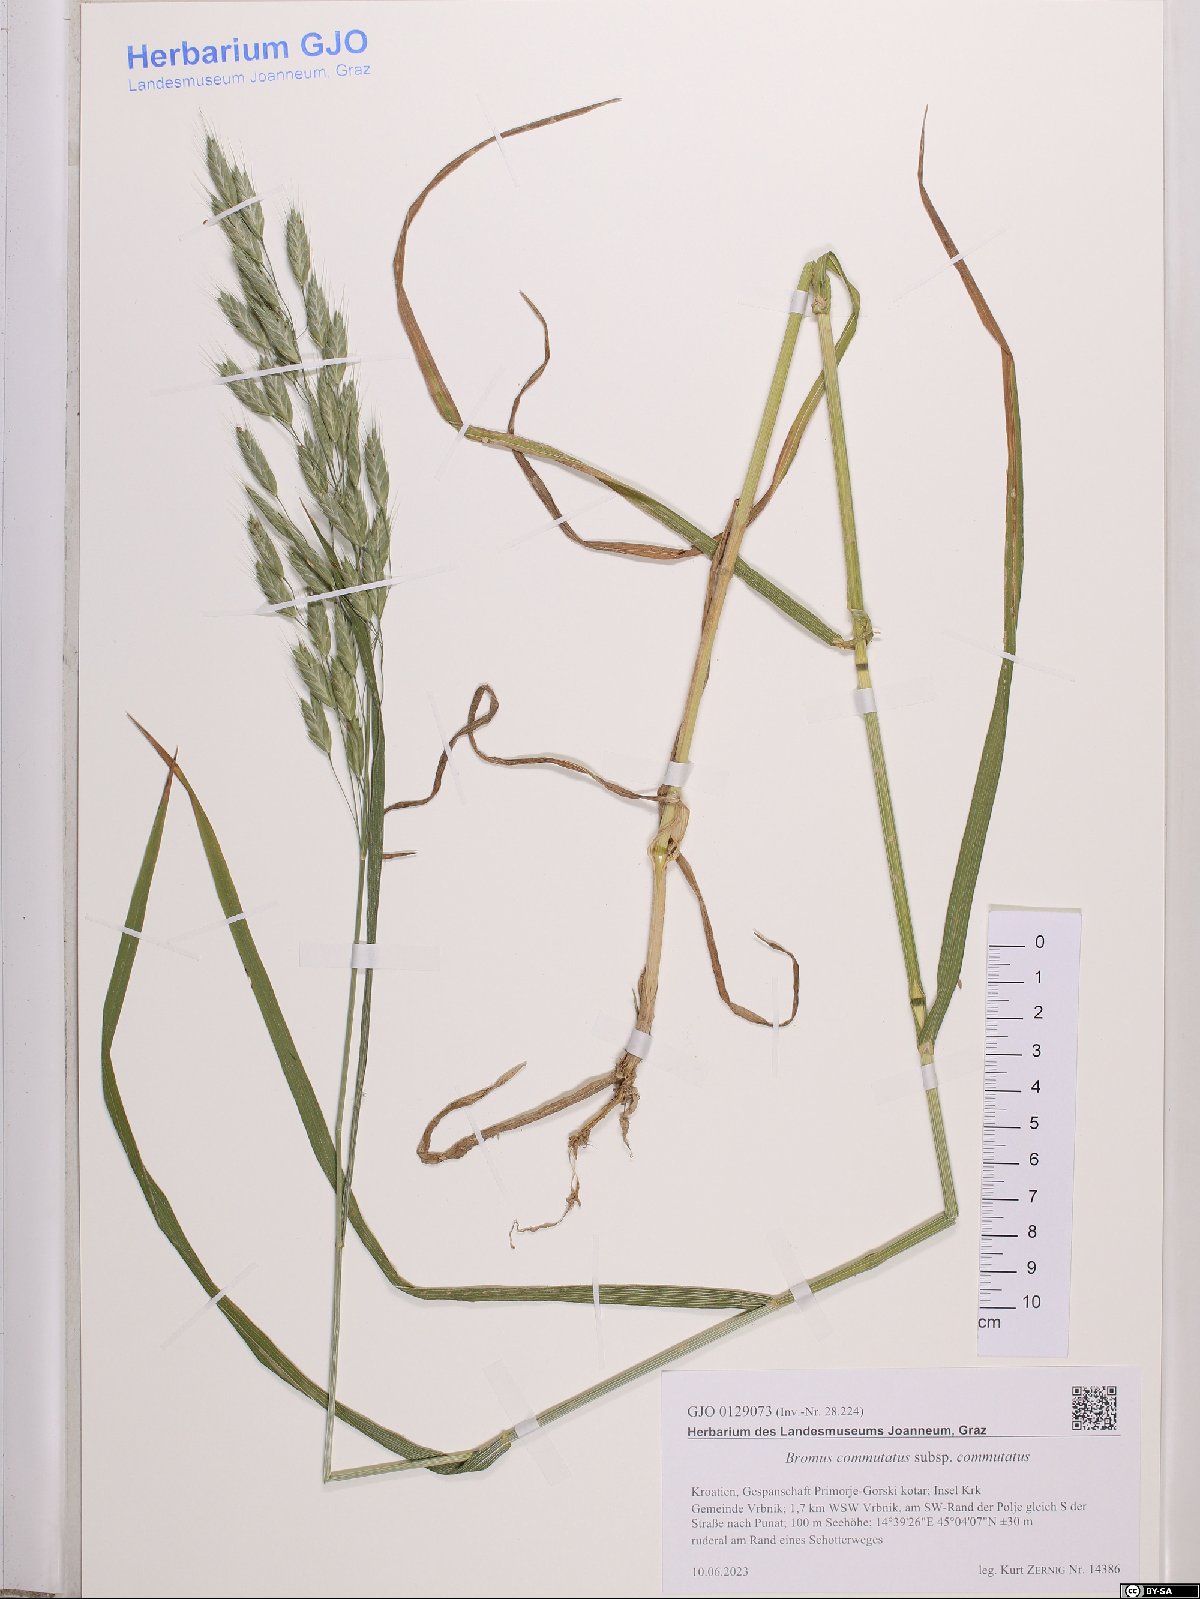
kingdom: Plantae
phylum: Tracheophyta
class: Liliopsida
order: Poales
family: Poaceae
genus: Bromus
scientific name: Bromus commutatus
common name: Meadow brome
